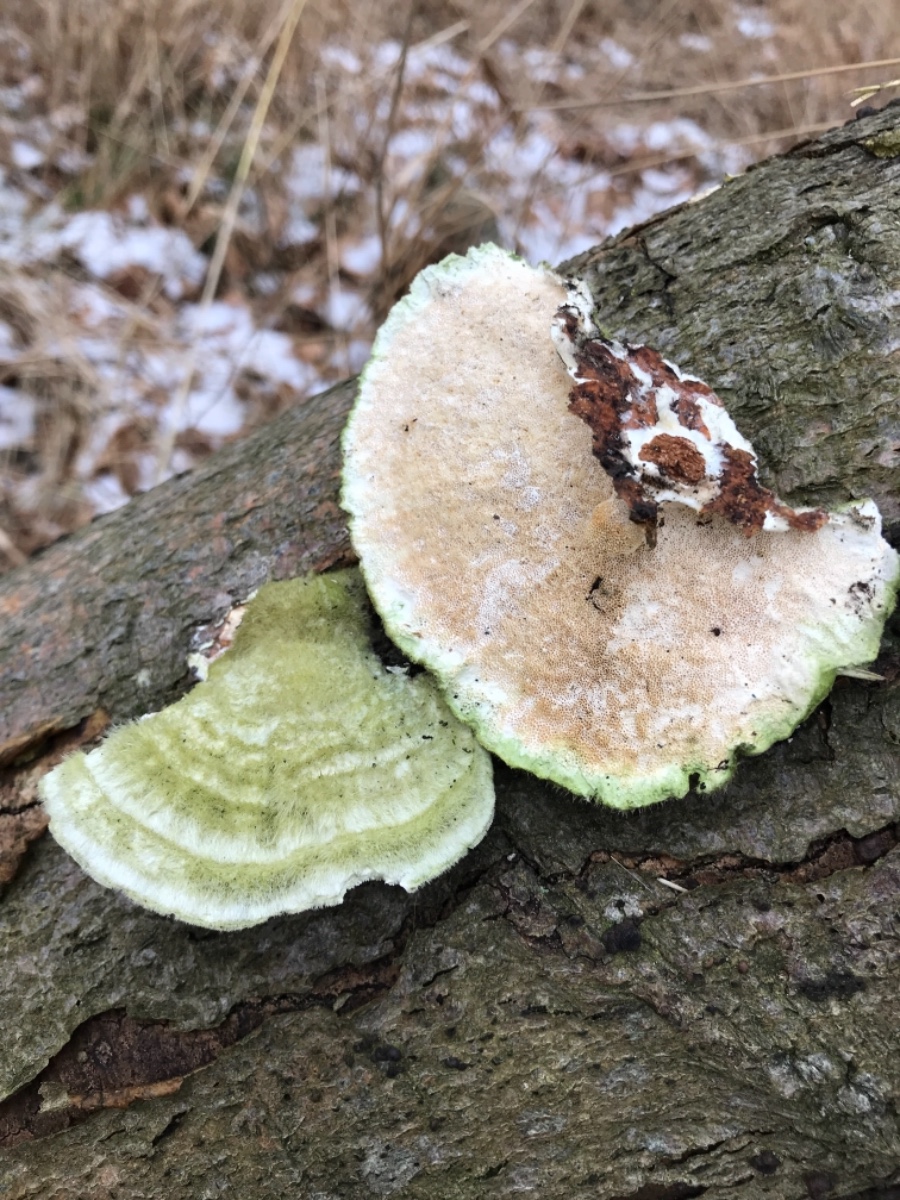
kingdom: Fungi
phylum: Basidiomycota
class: Agaricomycetes
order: Polyporales
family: Polyporaceae
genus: Trametes
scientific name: Trametes hirsuta
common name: håret læderporesvamp
